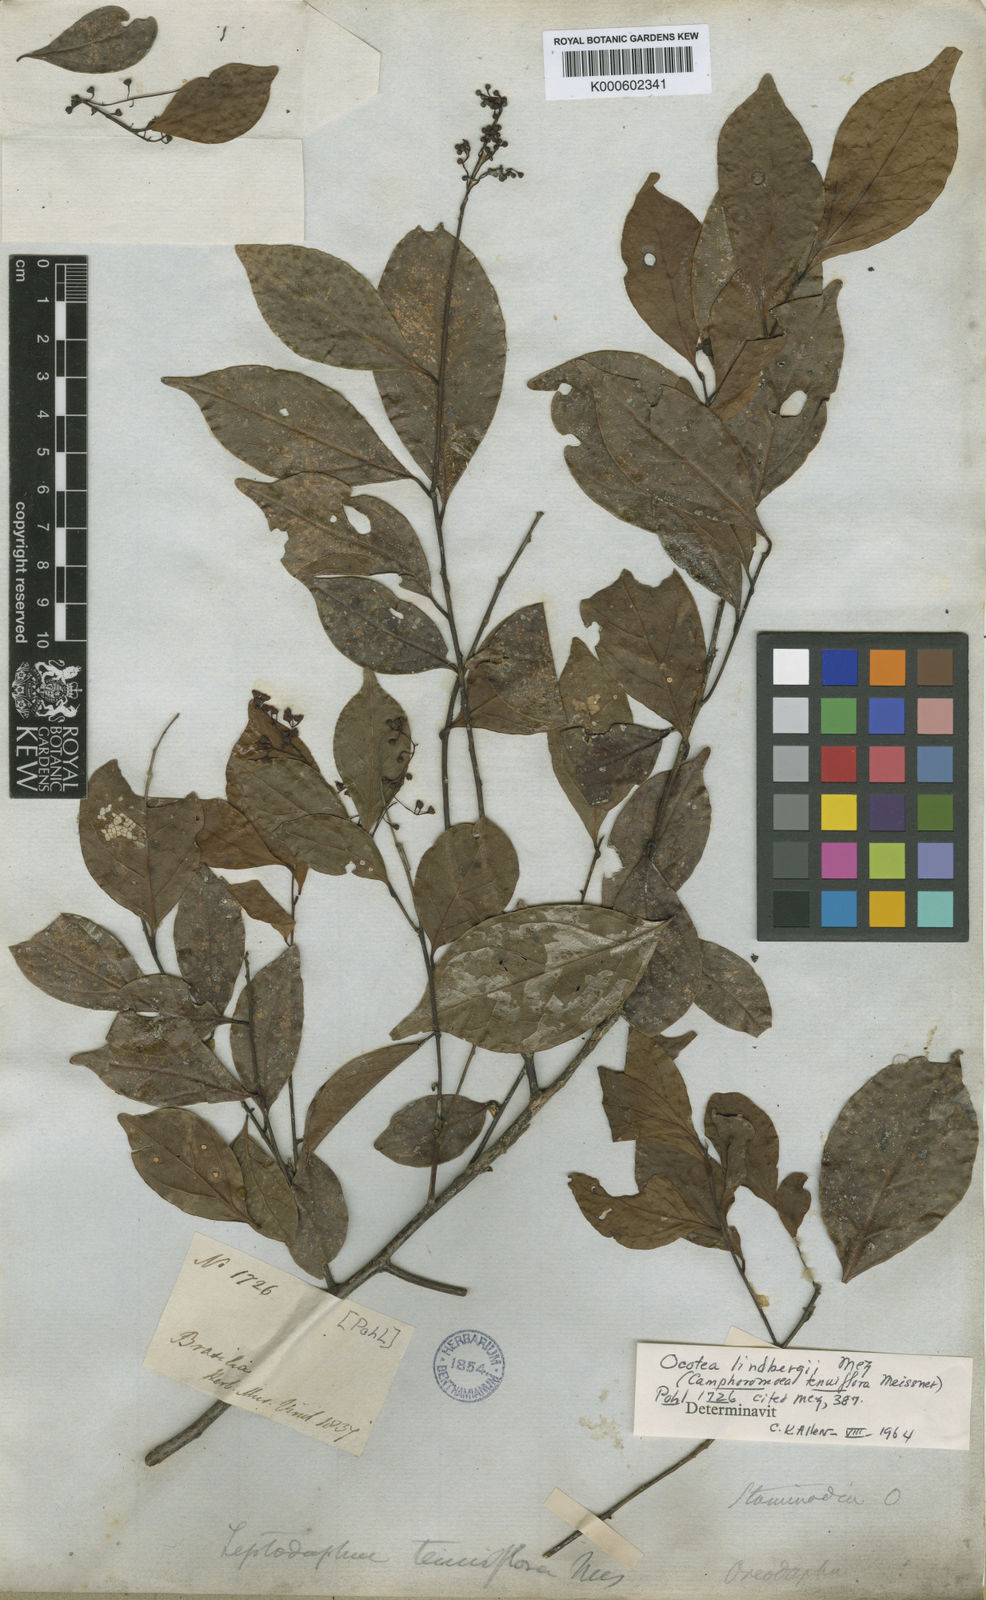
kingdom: Plantae
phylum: Tracheophyta
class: Magnoliopsida
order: Laurales
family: Lauraceae
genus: Ocotea
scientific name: Ocotea tenuiflora
